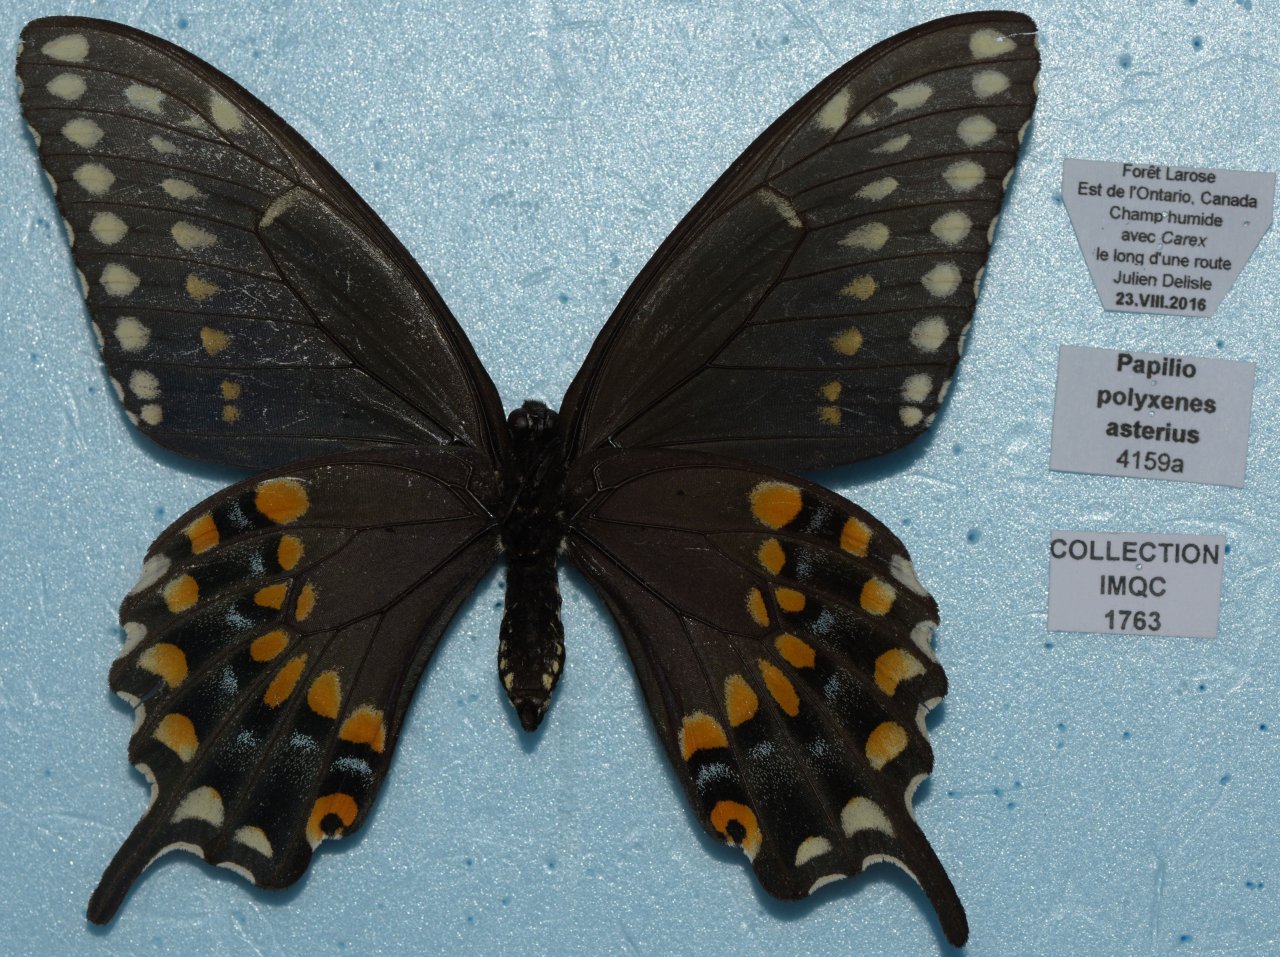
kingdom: Animalia
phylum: Arthropoda
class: Insecta
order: Lepidoptera
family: Papilionidae
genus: Papilio
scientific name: Papilio polyxenes
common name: Black Swallowtail
